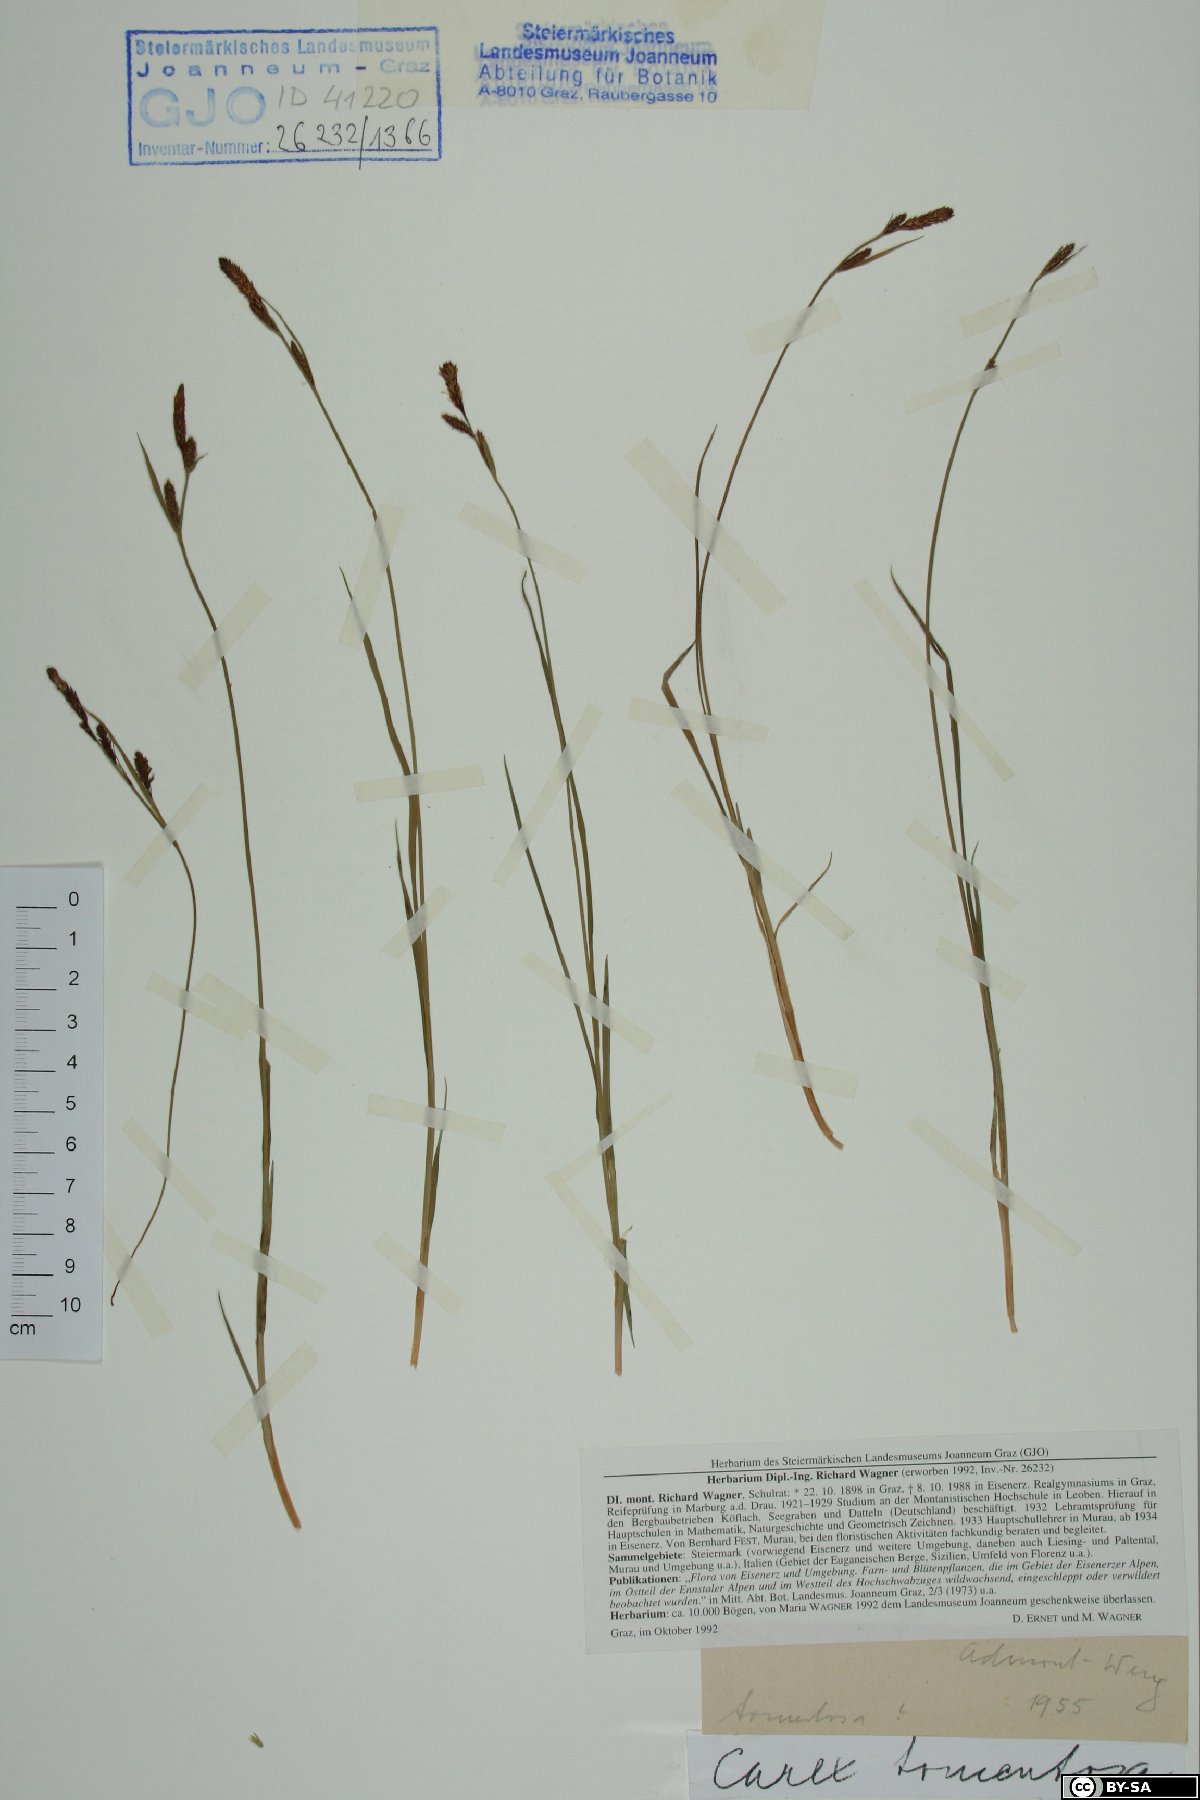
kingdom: Plantae
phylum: Tracheophyta
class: Liliopsida
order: Poales
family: Cyperaceae
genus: Carex
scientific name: Carex tomentosa
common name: Downy-fruited sedge
